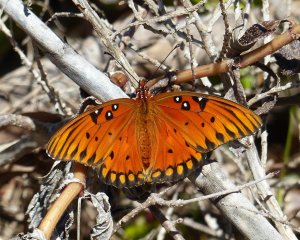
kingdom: Animalia
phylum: Arthropoda
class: Insecta
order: Lepidoptera
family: Nymphalidae
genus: Dione
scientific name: Dione vanillae
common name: Gulf Fritillary
